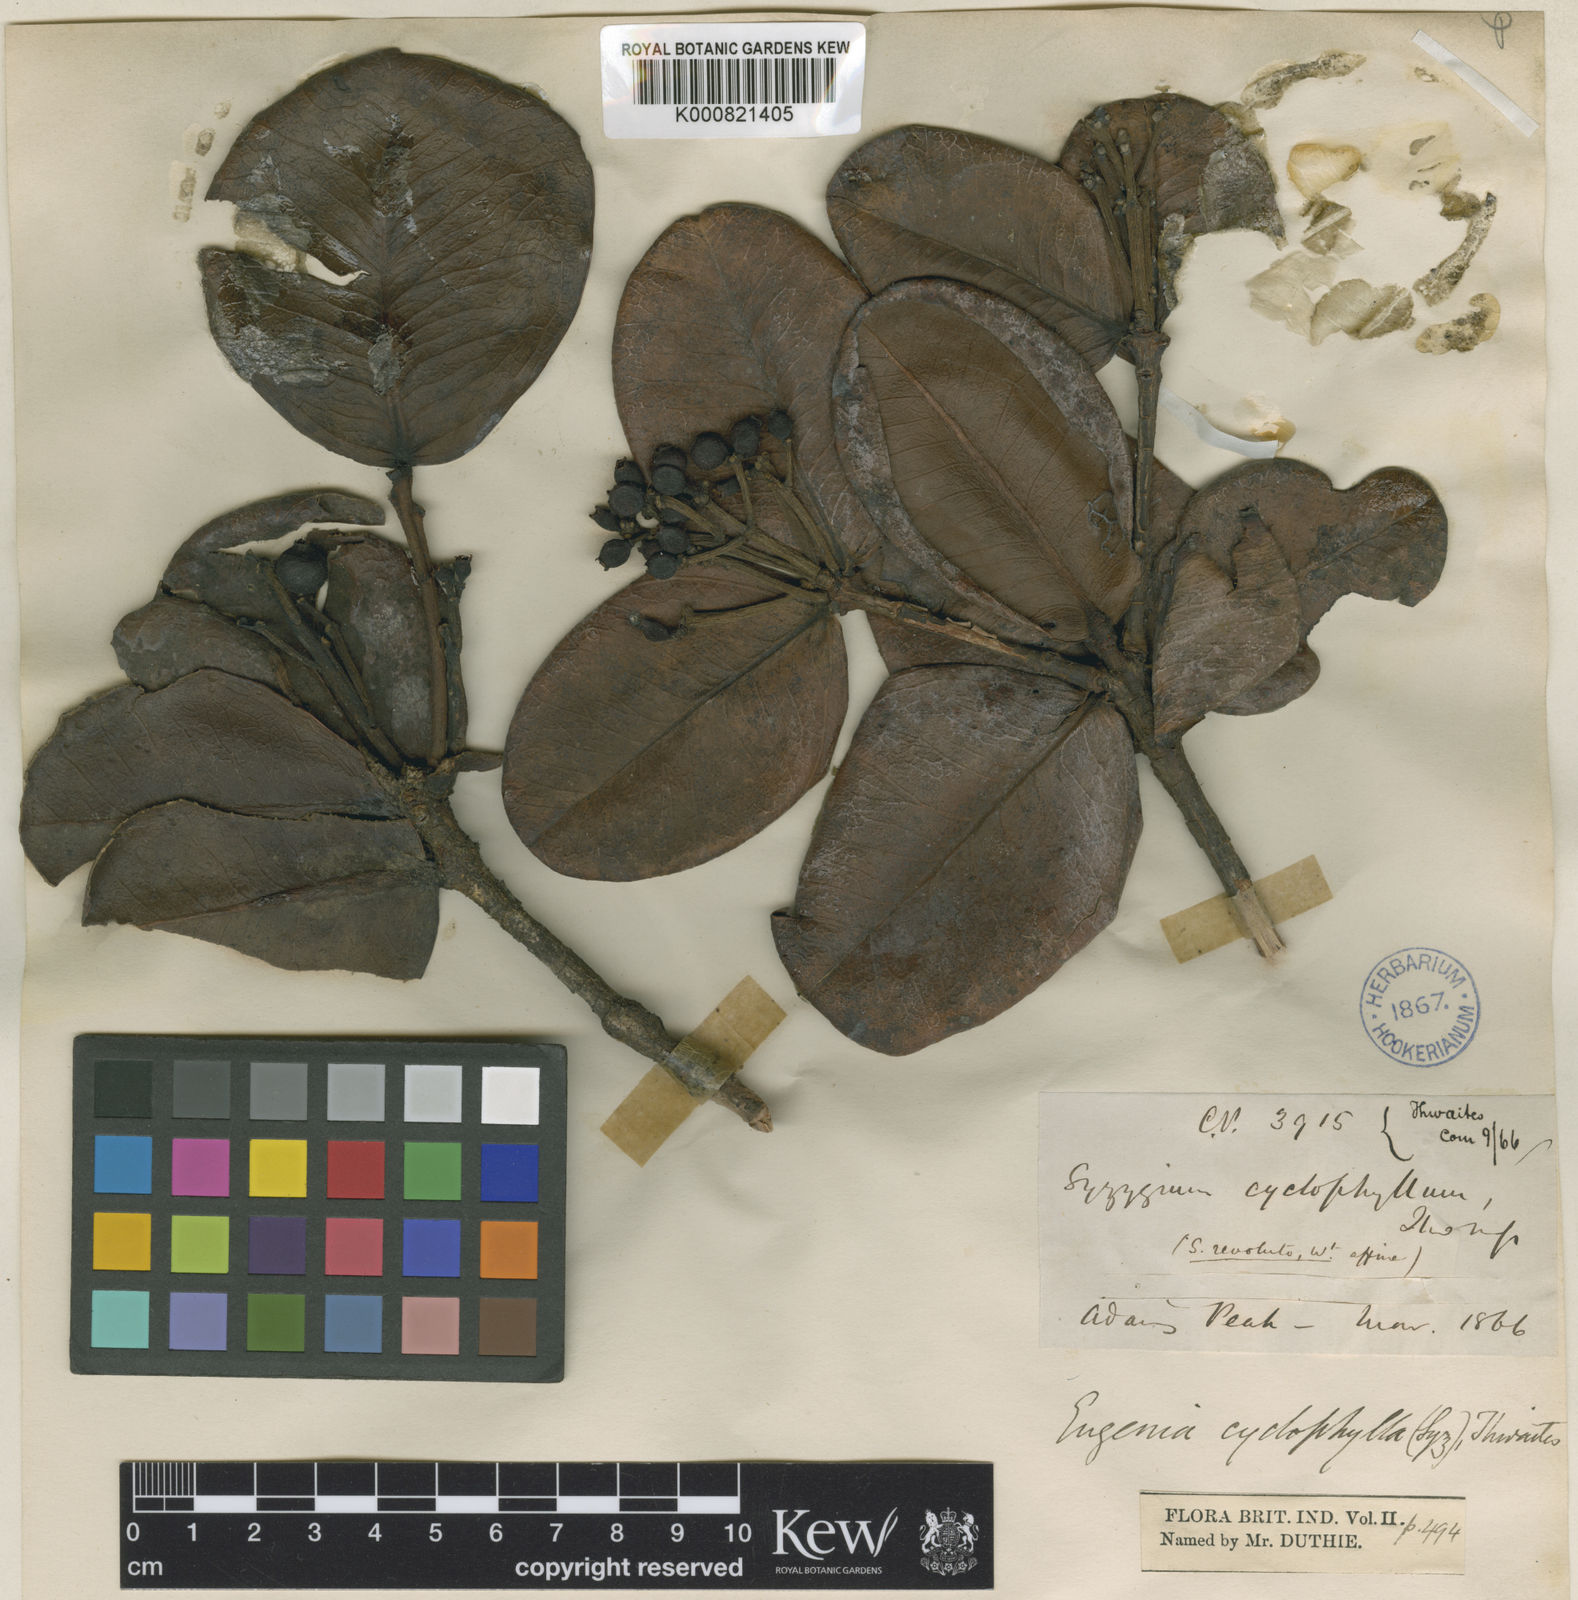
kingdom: Plantae
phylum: Tracheophyta
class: Magnoliopsida
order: Myrtales
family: Myrtaceae
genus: Syzygium
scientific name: Syzygium
